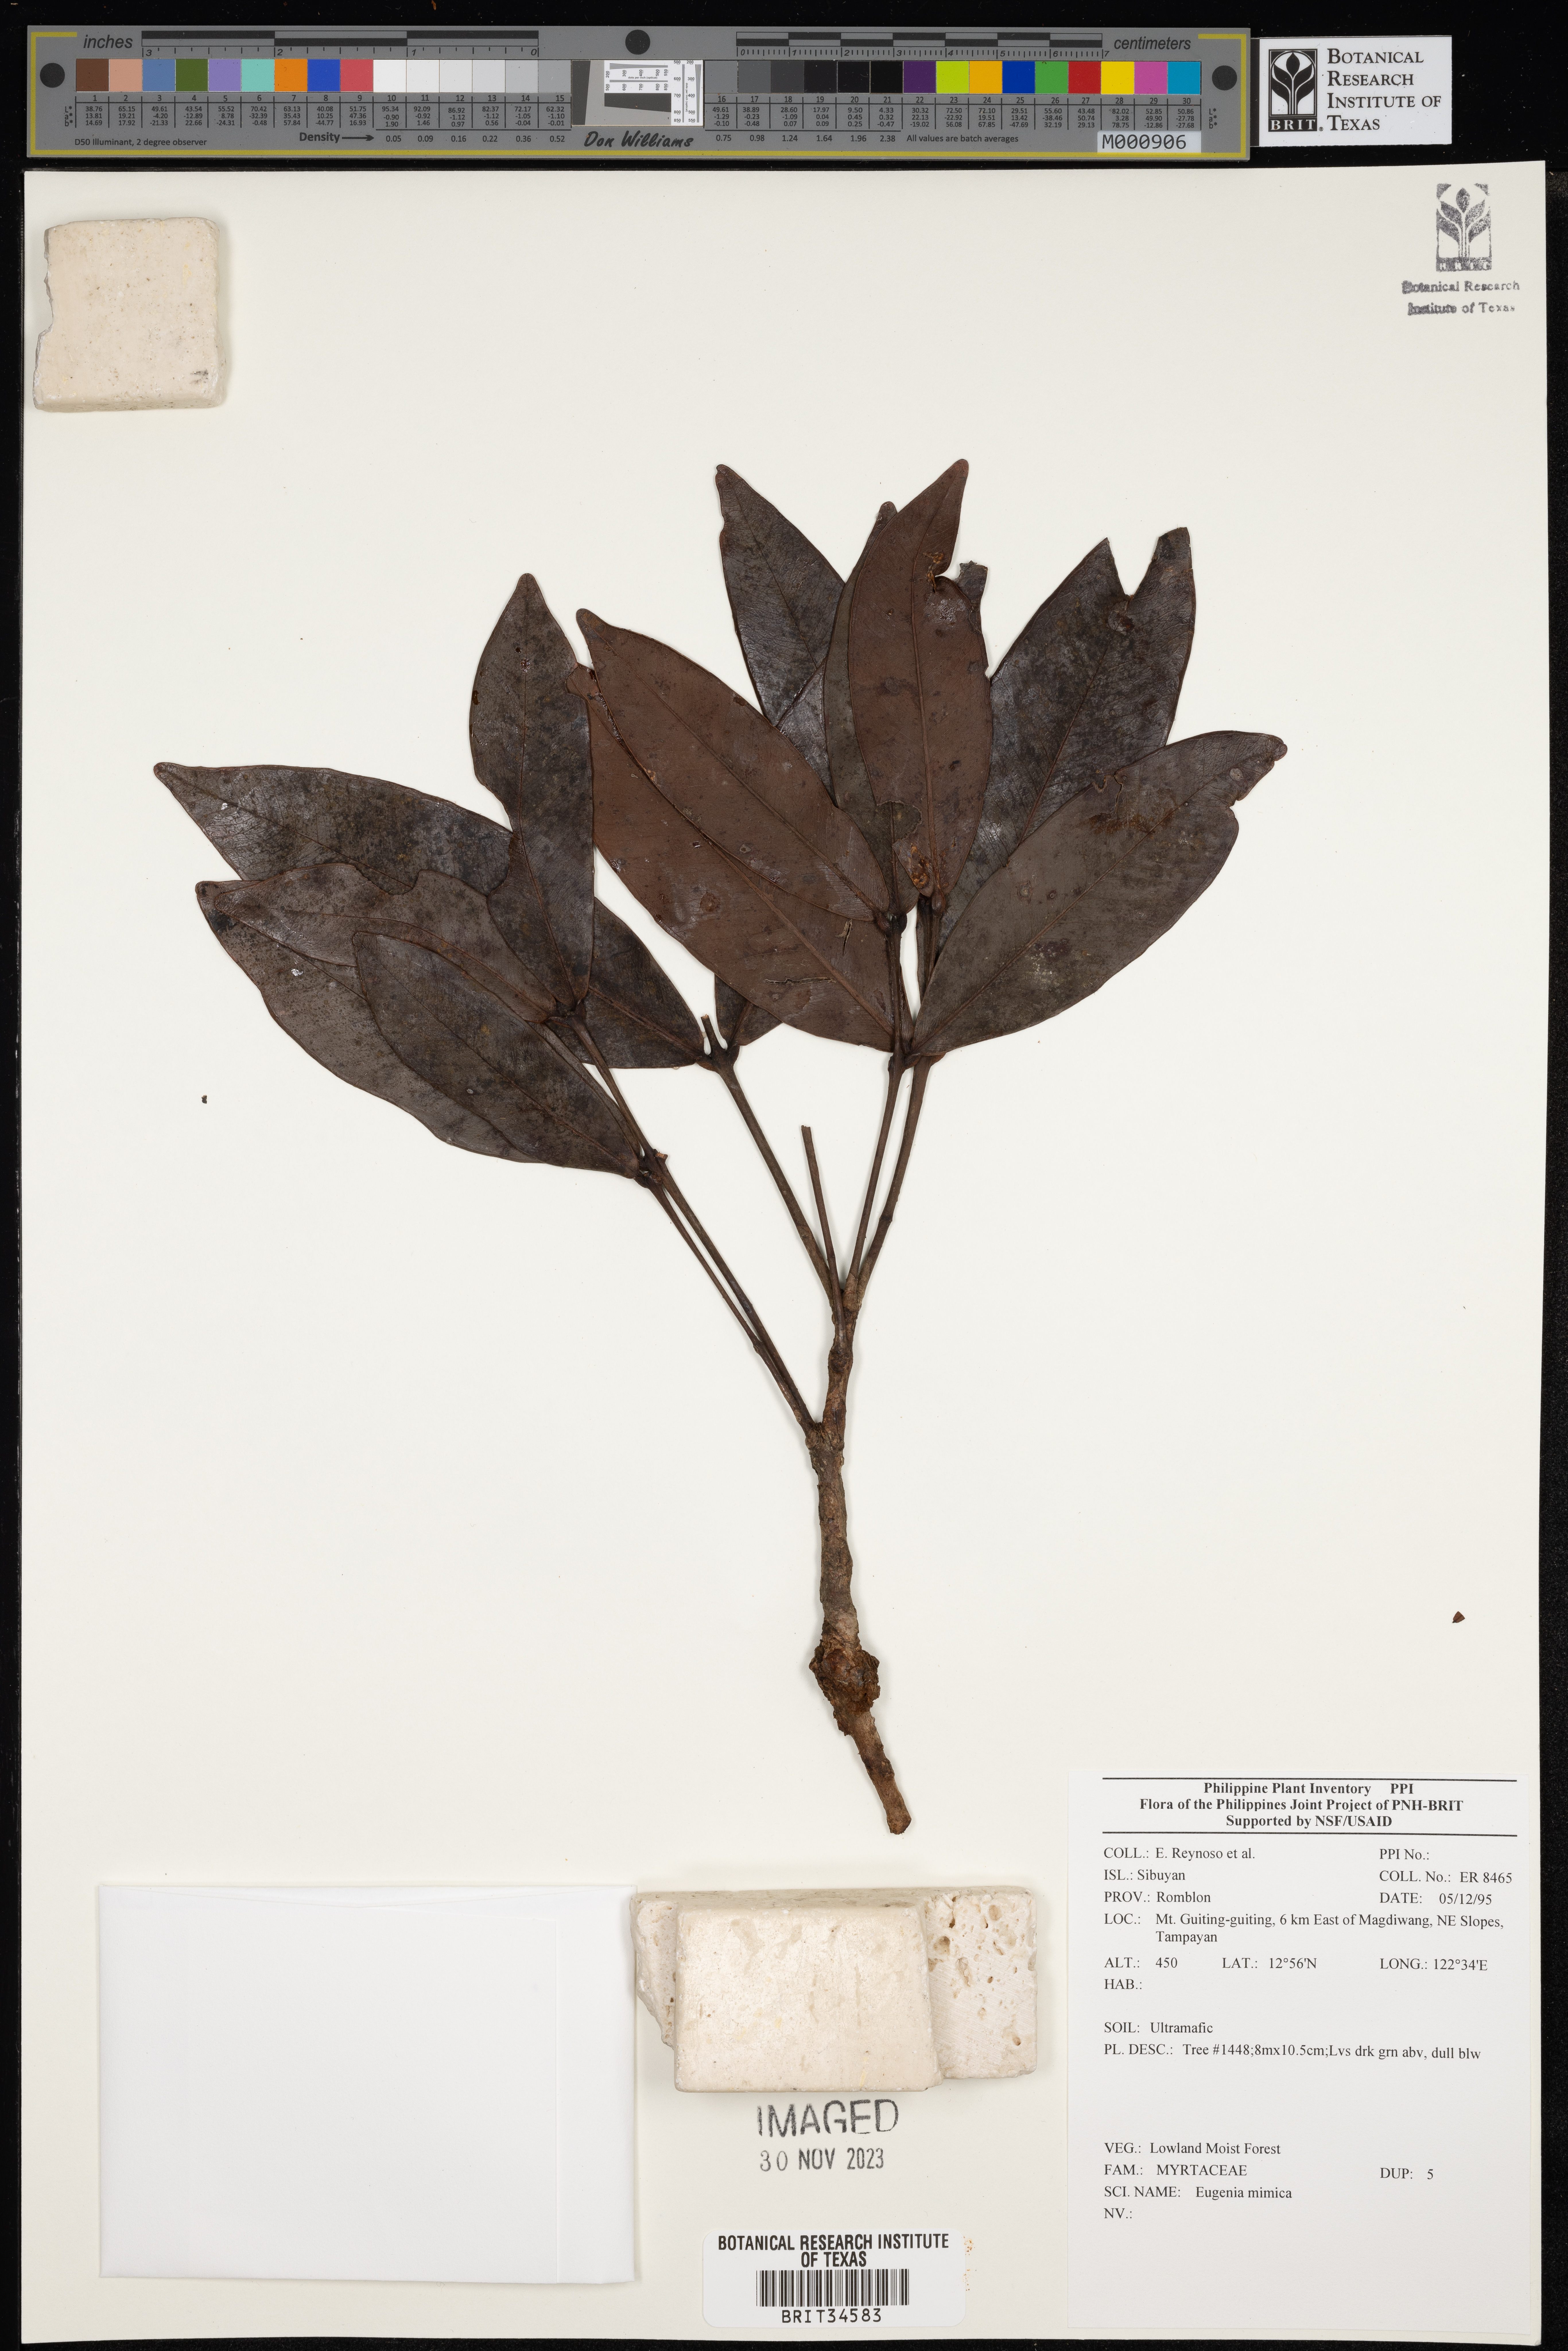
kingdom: Plantae
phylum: Tracheophyta
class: Magnoliopsida
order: Myrtales
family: Myrtaceae
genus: Eugenia
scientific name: Eugenia
